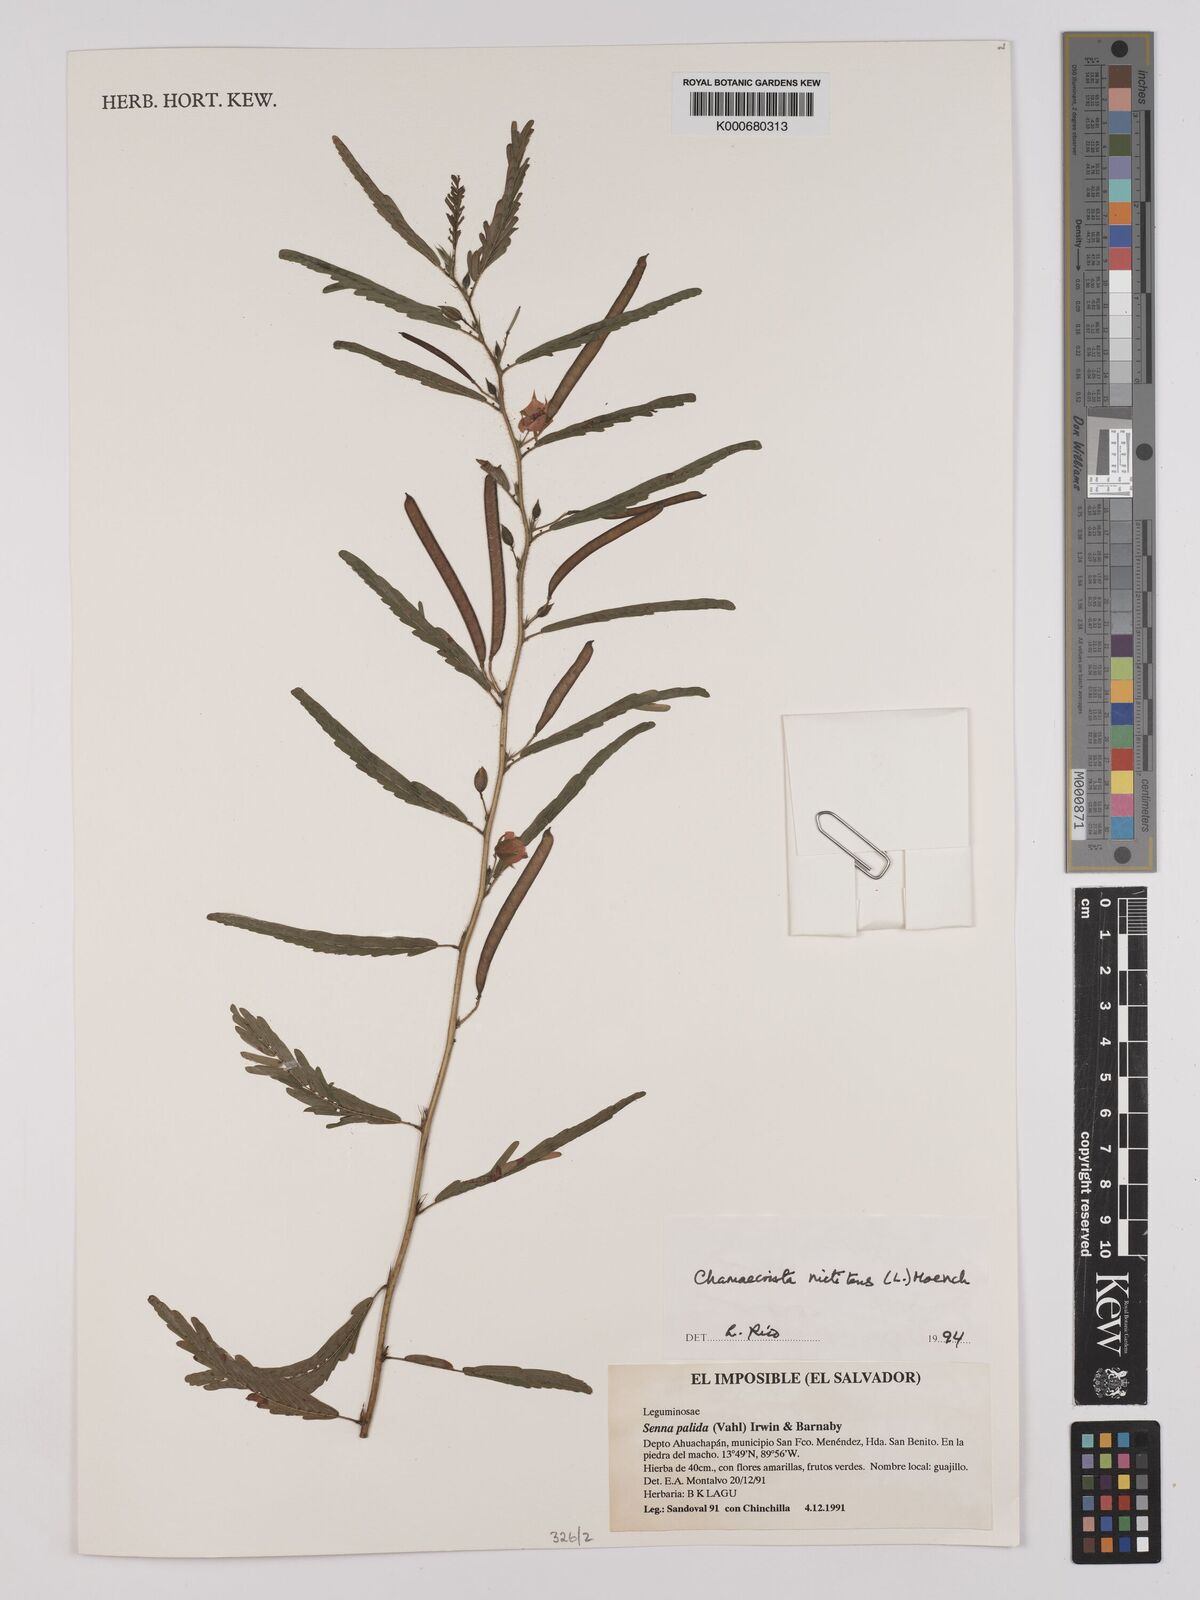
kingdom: Plantae
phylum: Tracheophyta
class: Magnoliopsida
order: Fabales
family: Fabaceae
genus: Chamaecrista
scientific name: Chamaecrista nictitans
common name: Sensitive cassia
